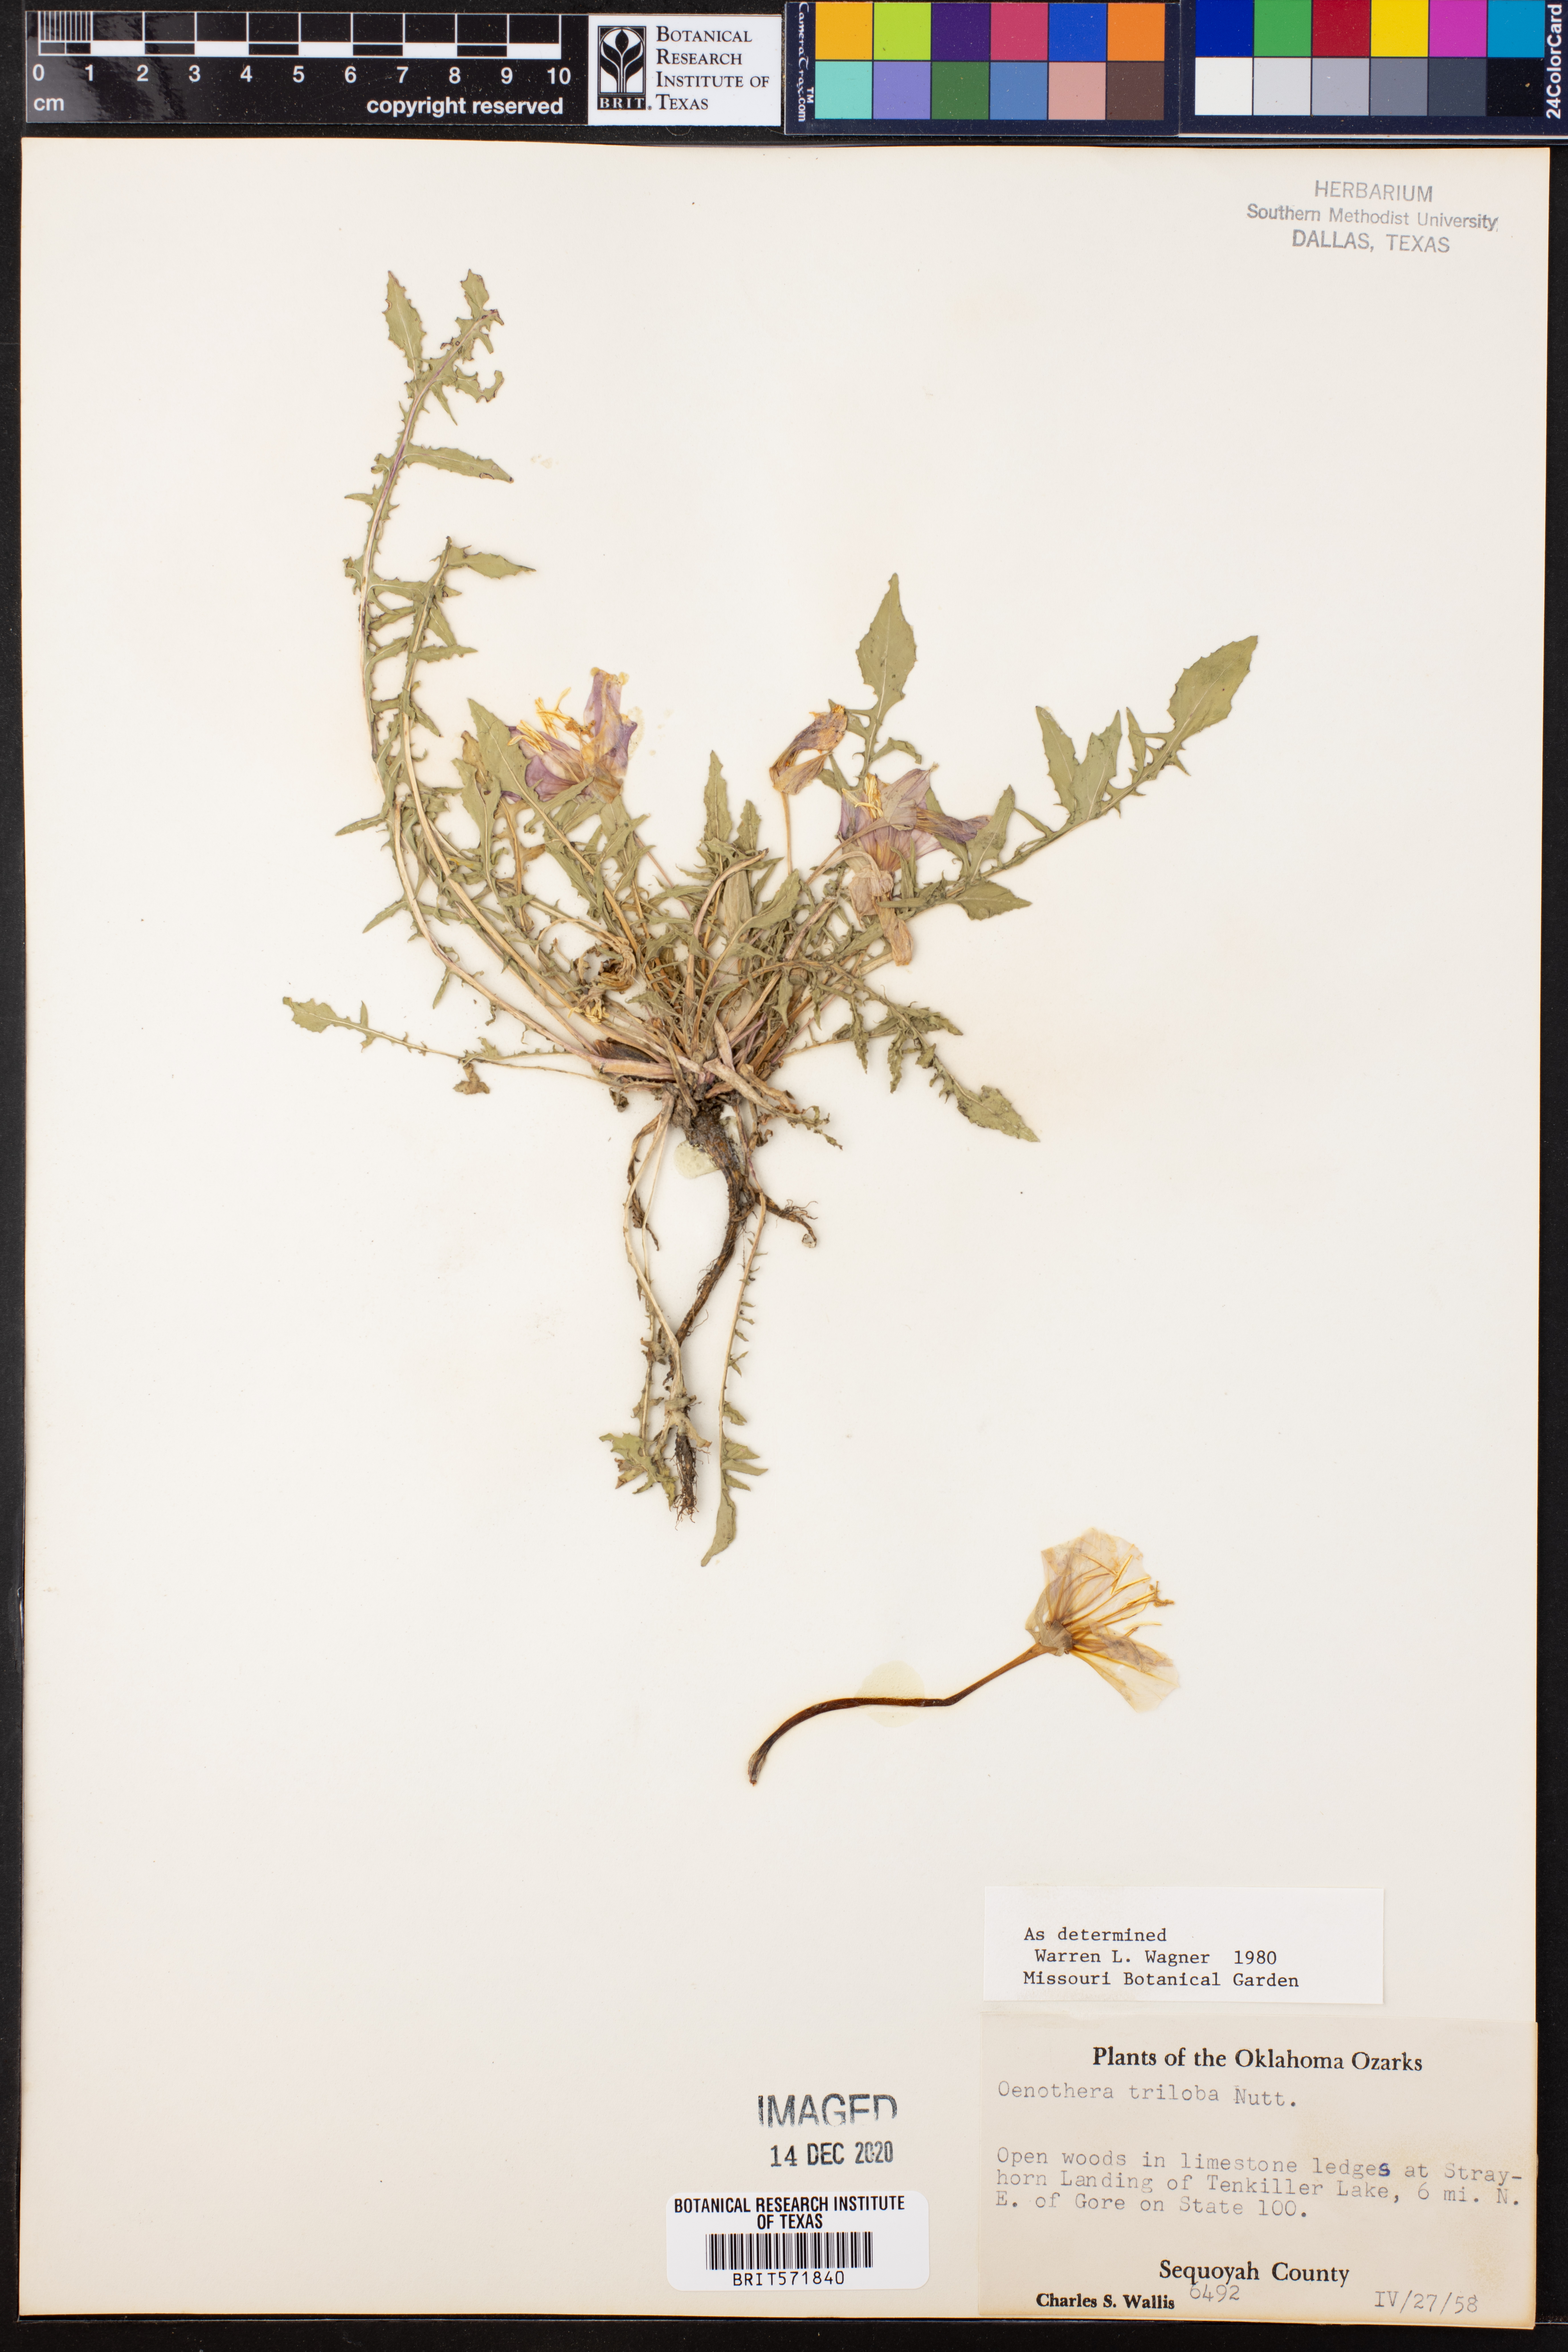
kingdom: Plantae
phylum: Tracheophyta
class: Magnoliopsida
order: Myrtales
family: Onagraceae
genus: Oenothera
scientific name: Oenothera triloba
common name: Sessile evening-primrose
